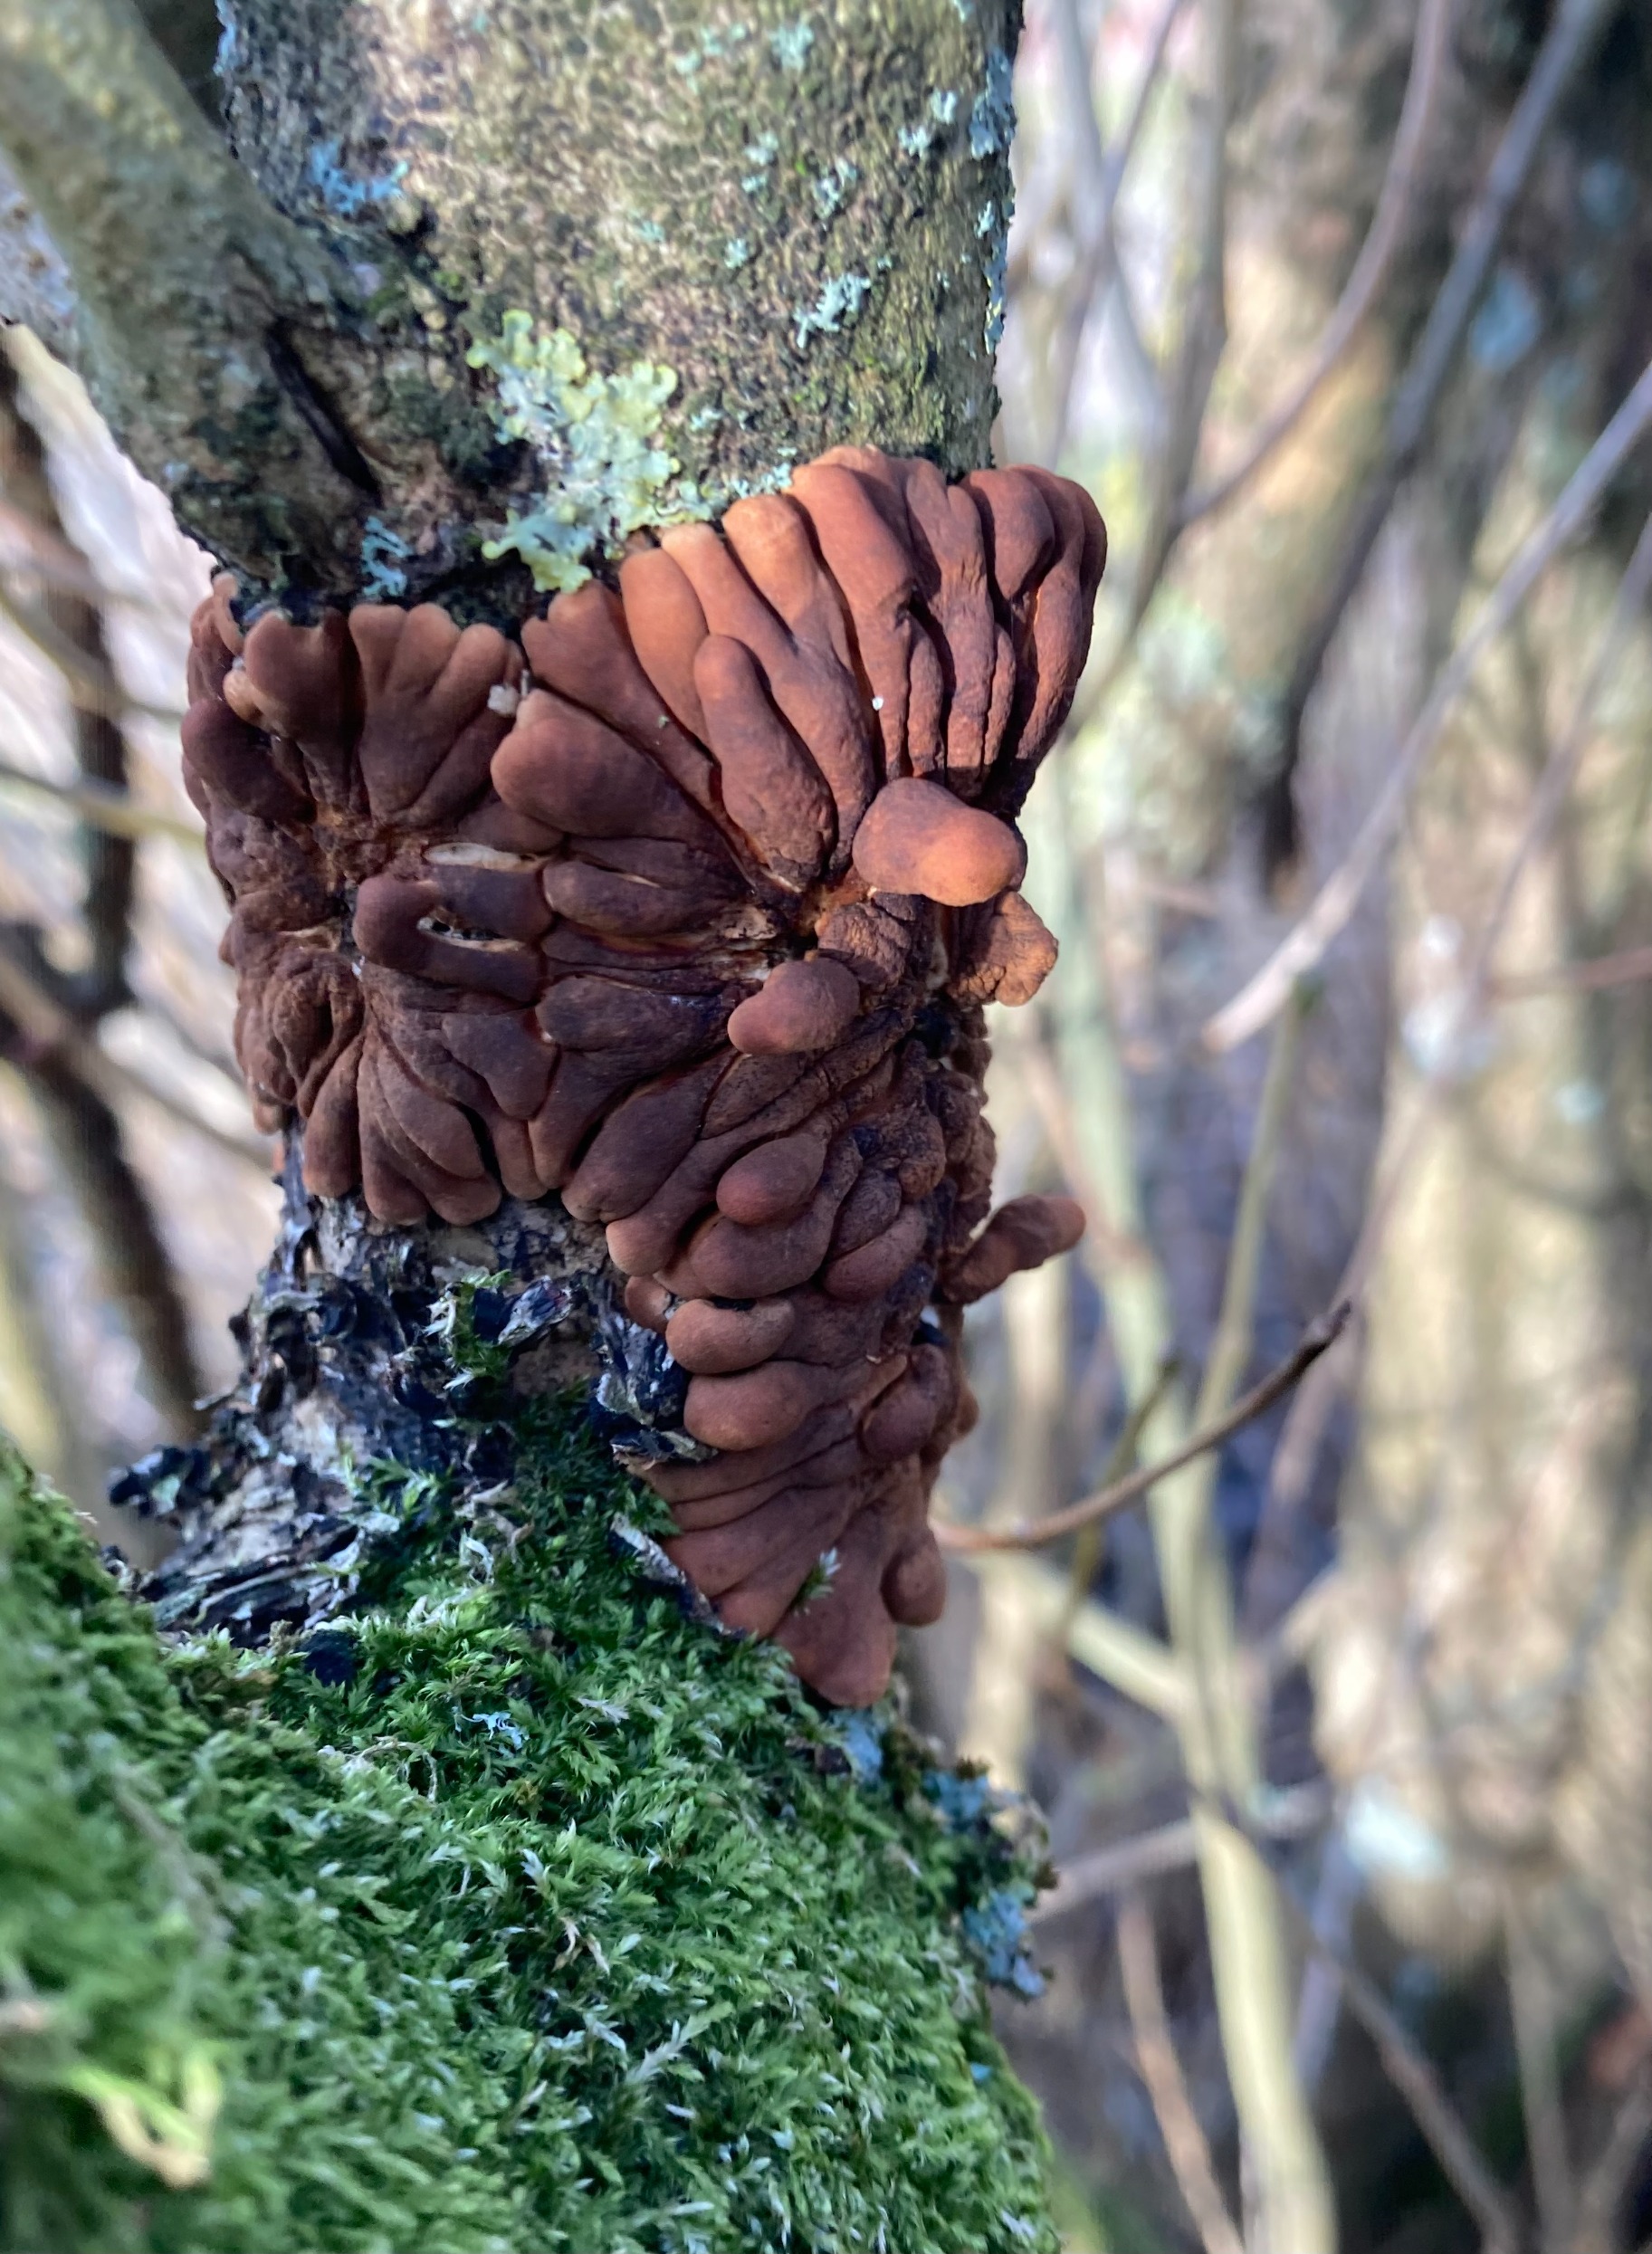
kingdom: Fungi
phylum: Ascomycota
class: Sordariomycetes
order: Hypocreales
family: Hypocreaceae
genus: Hypocreopsis
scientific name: Hypocreopsis lichenoides
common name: Pilfinger
